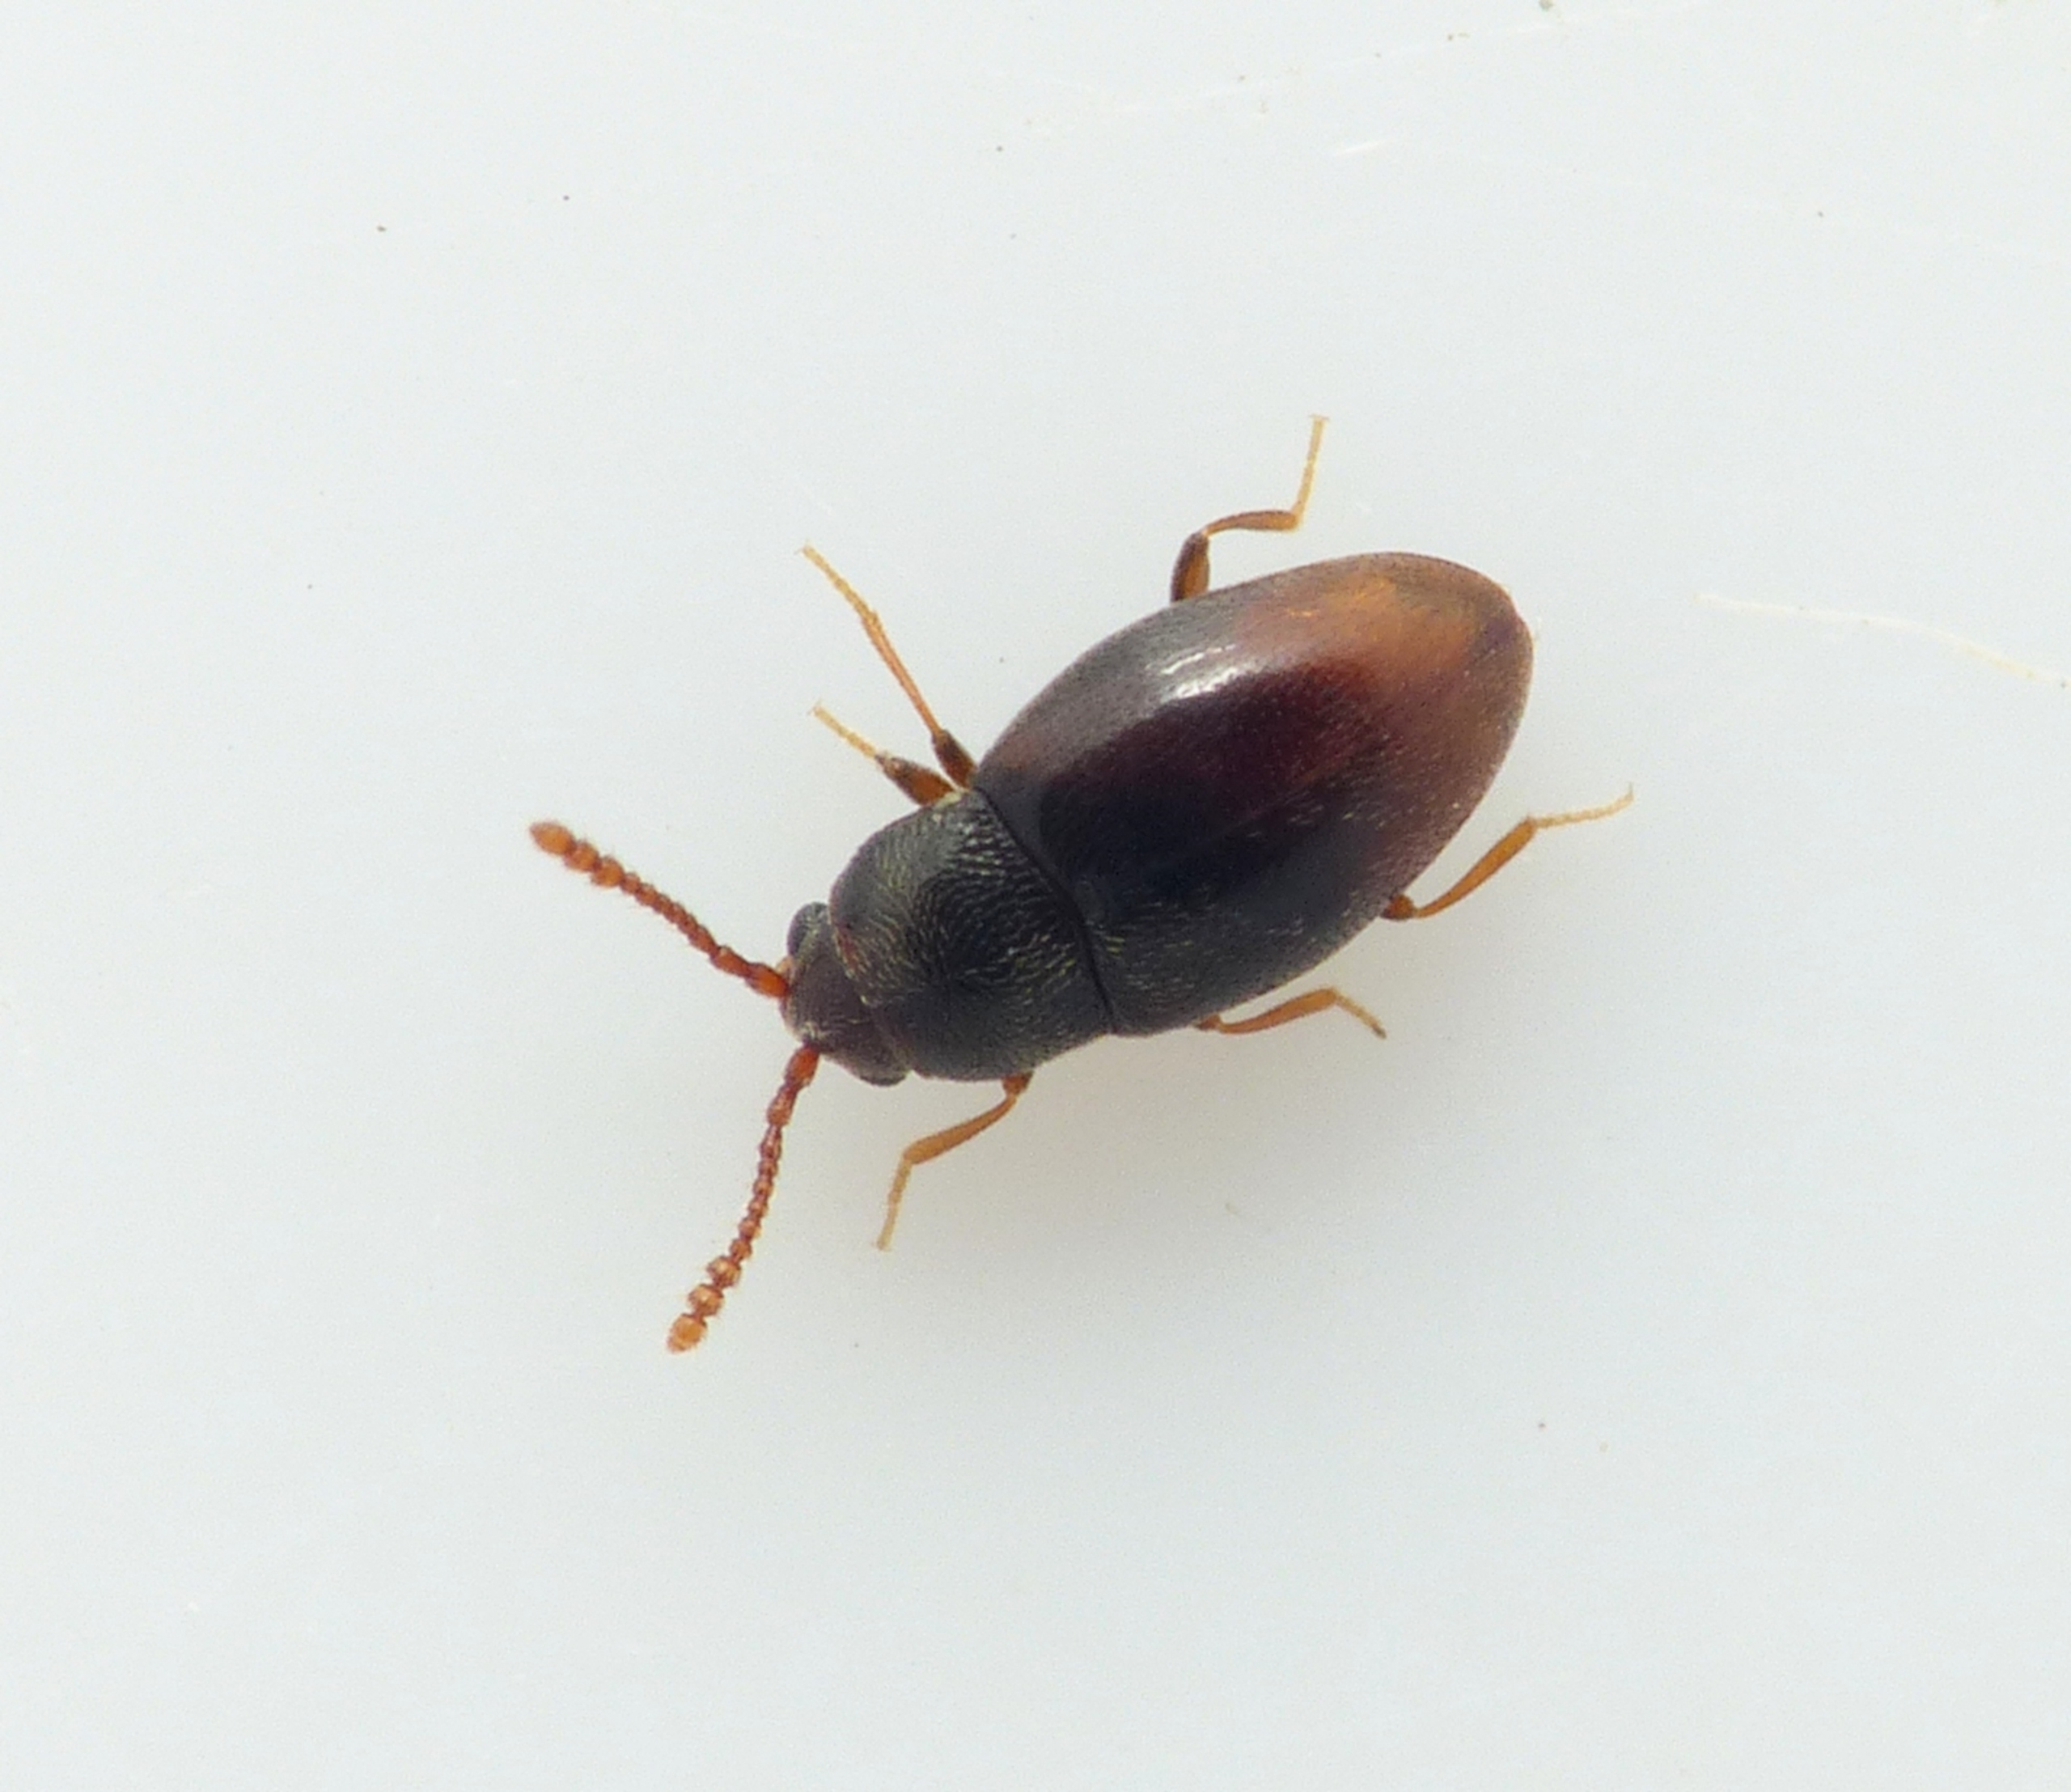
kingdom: Animalia
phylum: Arthropoda
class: Insecta
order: Coleoptera
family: Cryptophagidae
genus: Atomaria
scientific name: Atomaria testacea
